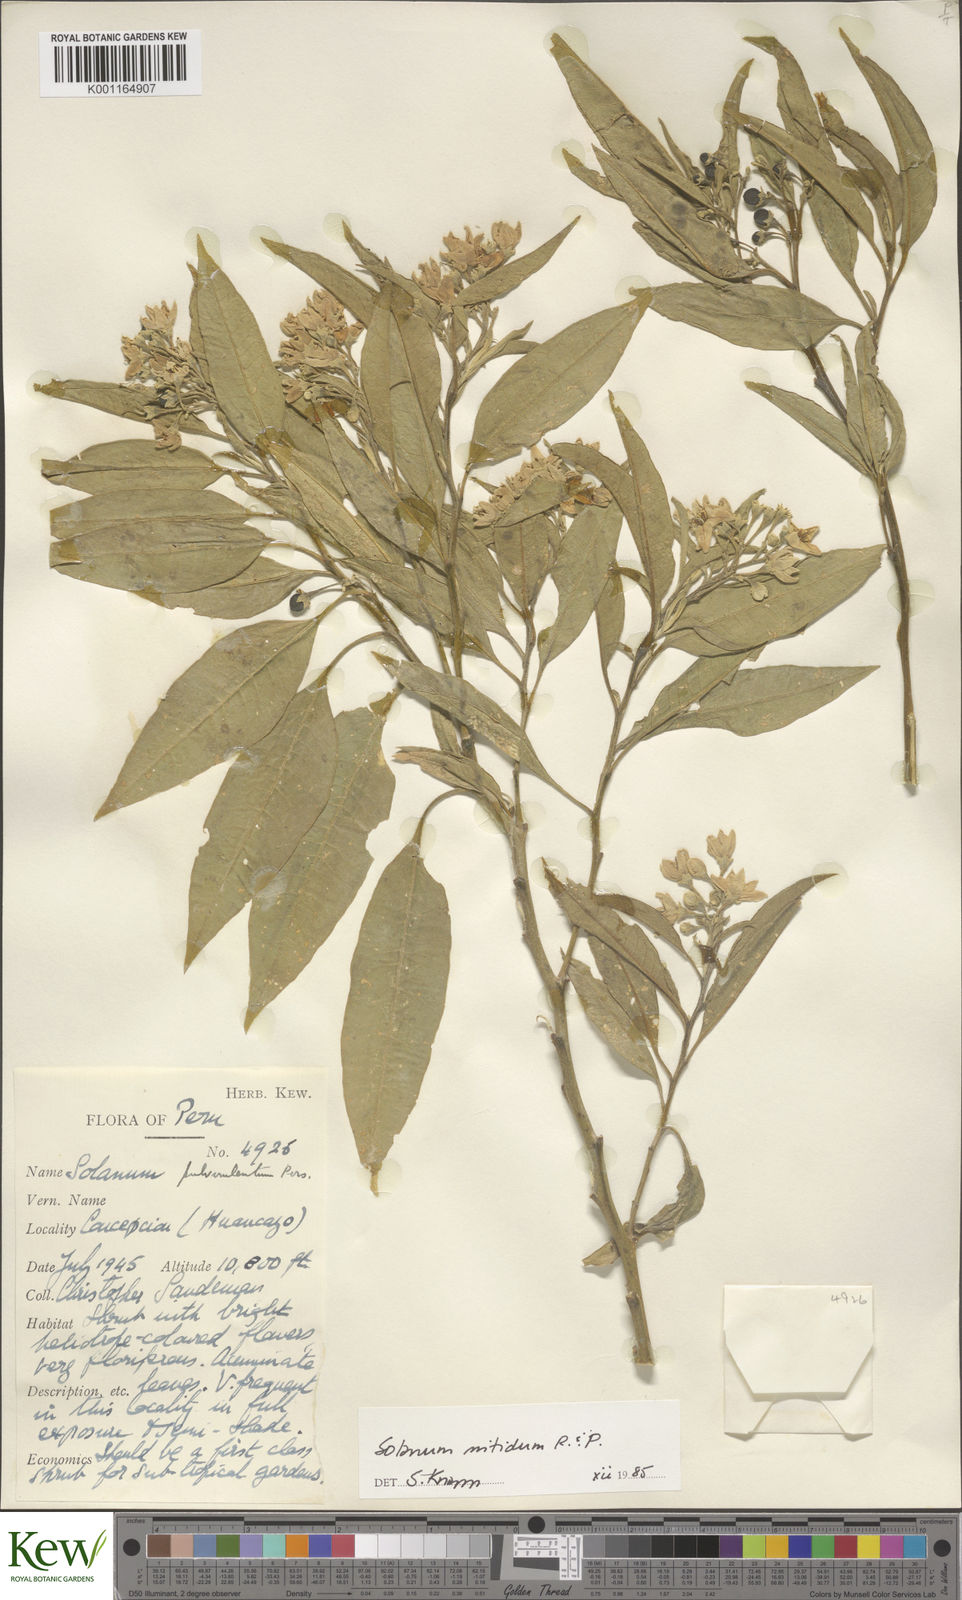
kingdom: Plantae
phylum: Tracheophyta
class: Magnoliopsida
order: Solanales
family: Solanaceae
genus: Solanum
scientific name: Solanum nitidum
